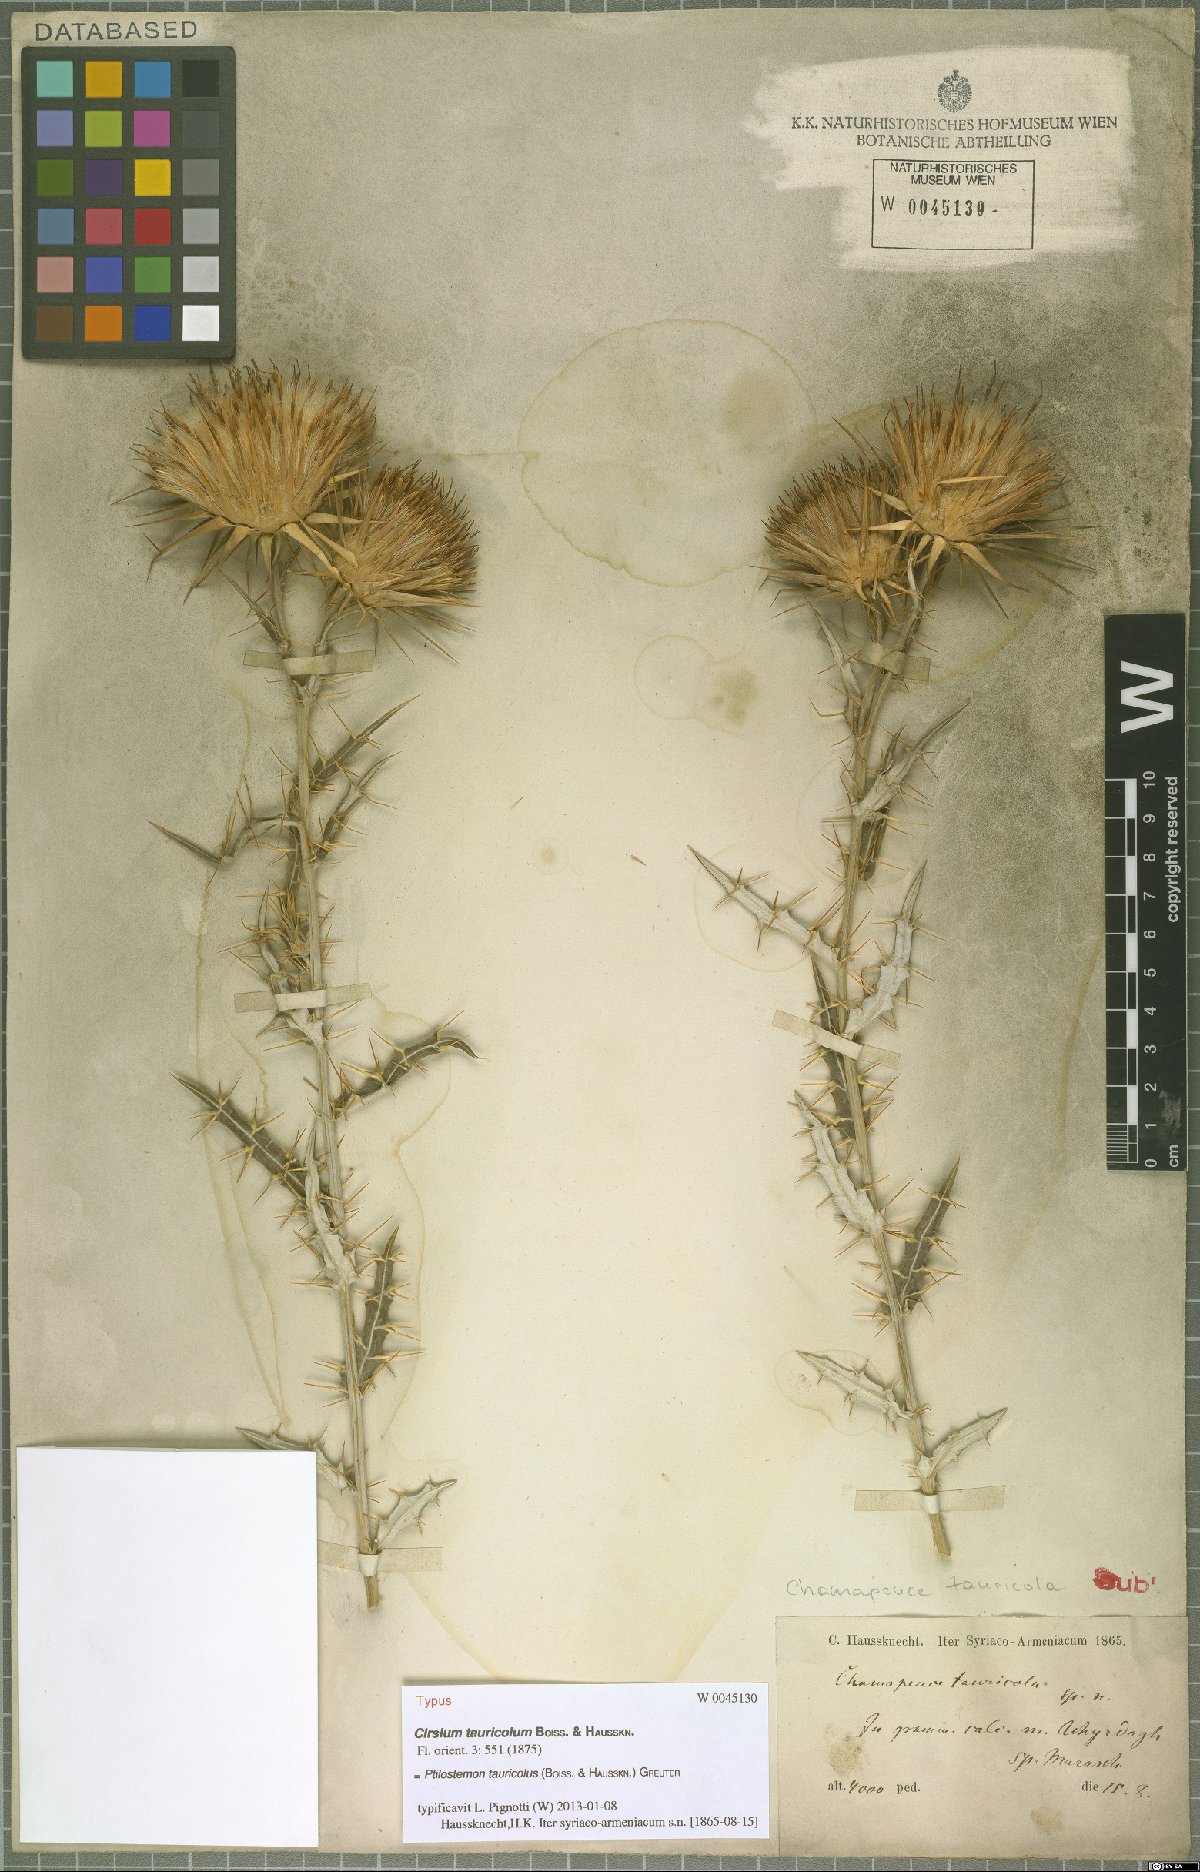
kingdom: Plantae
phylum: Tracheophyta
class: Magnoliopsida
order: Asterales
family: Asteraceae
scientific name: Asteraceae
